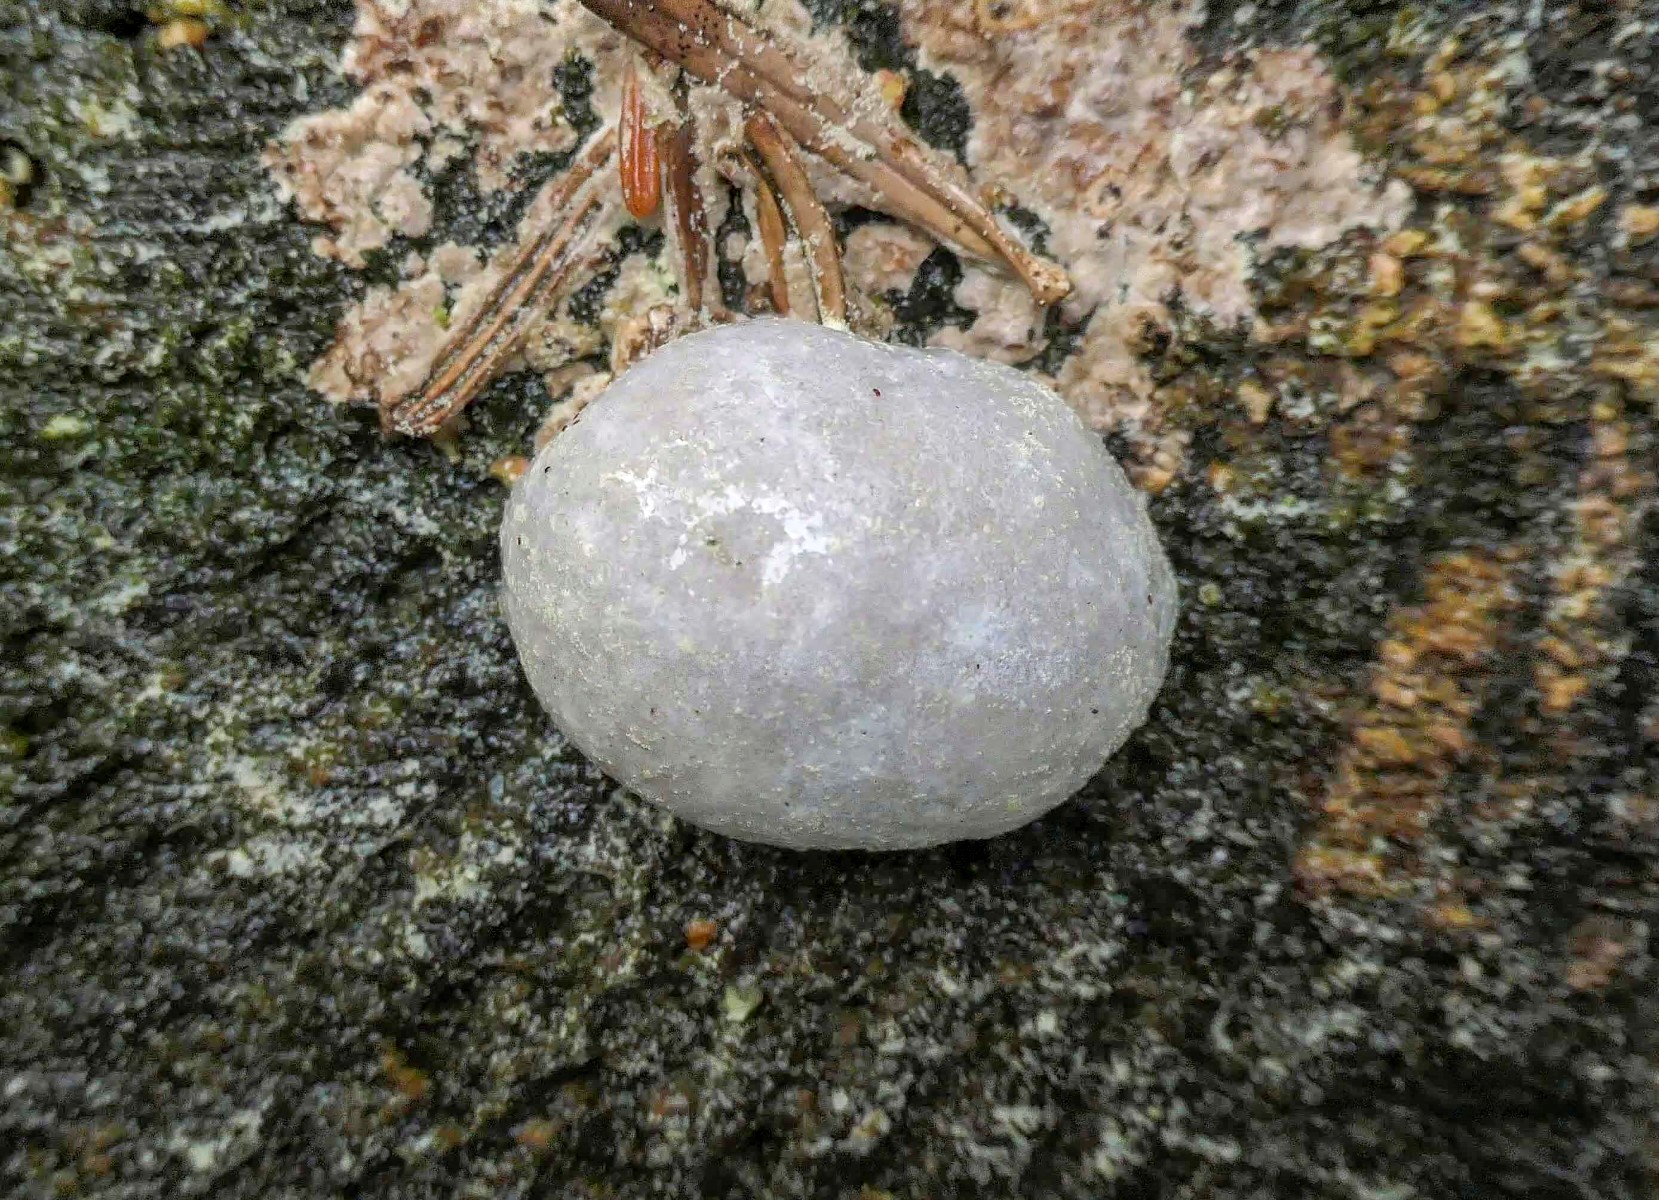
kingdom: Protozoa
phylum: Mycetozoa
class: Myxomycetes
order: Cribrariales
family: Tubiferaceae
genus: Reticularia
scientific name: Reticularia lycoperdon
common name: skinnende støvpude
